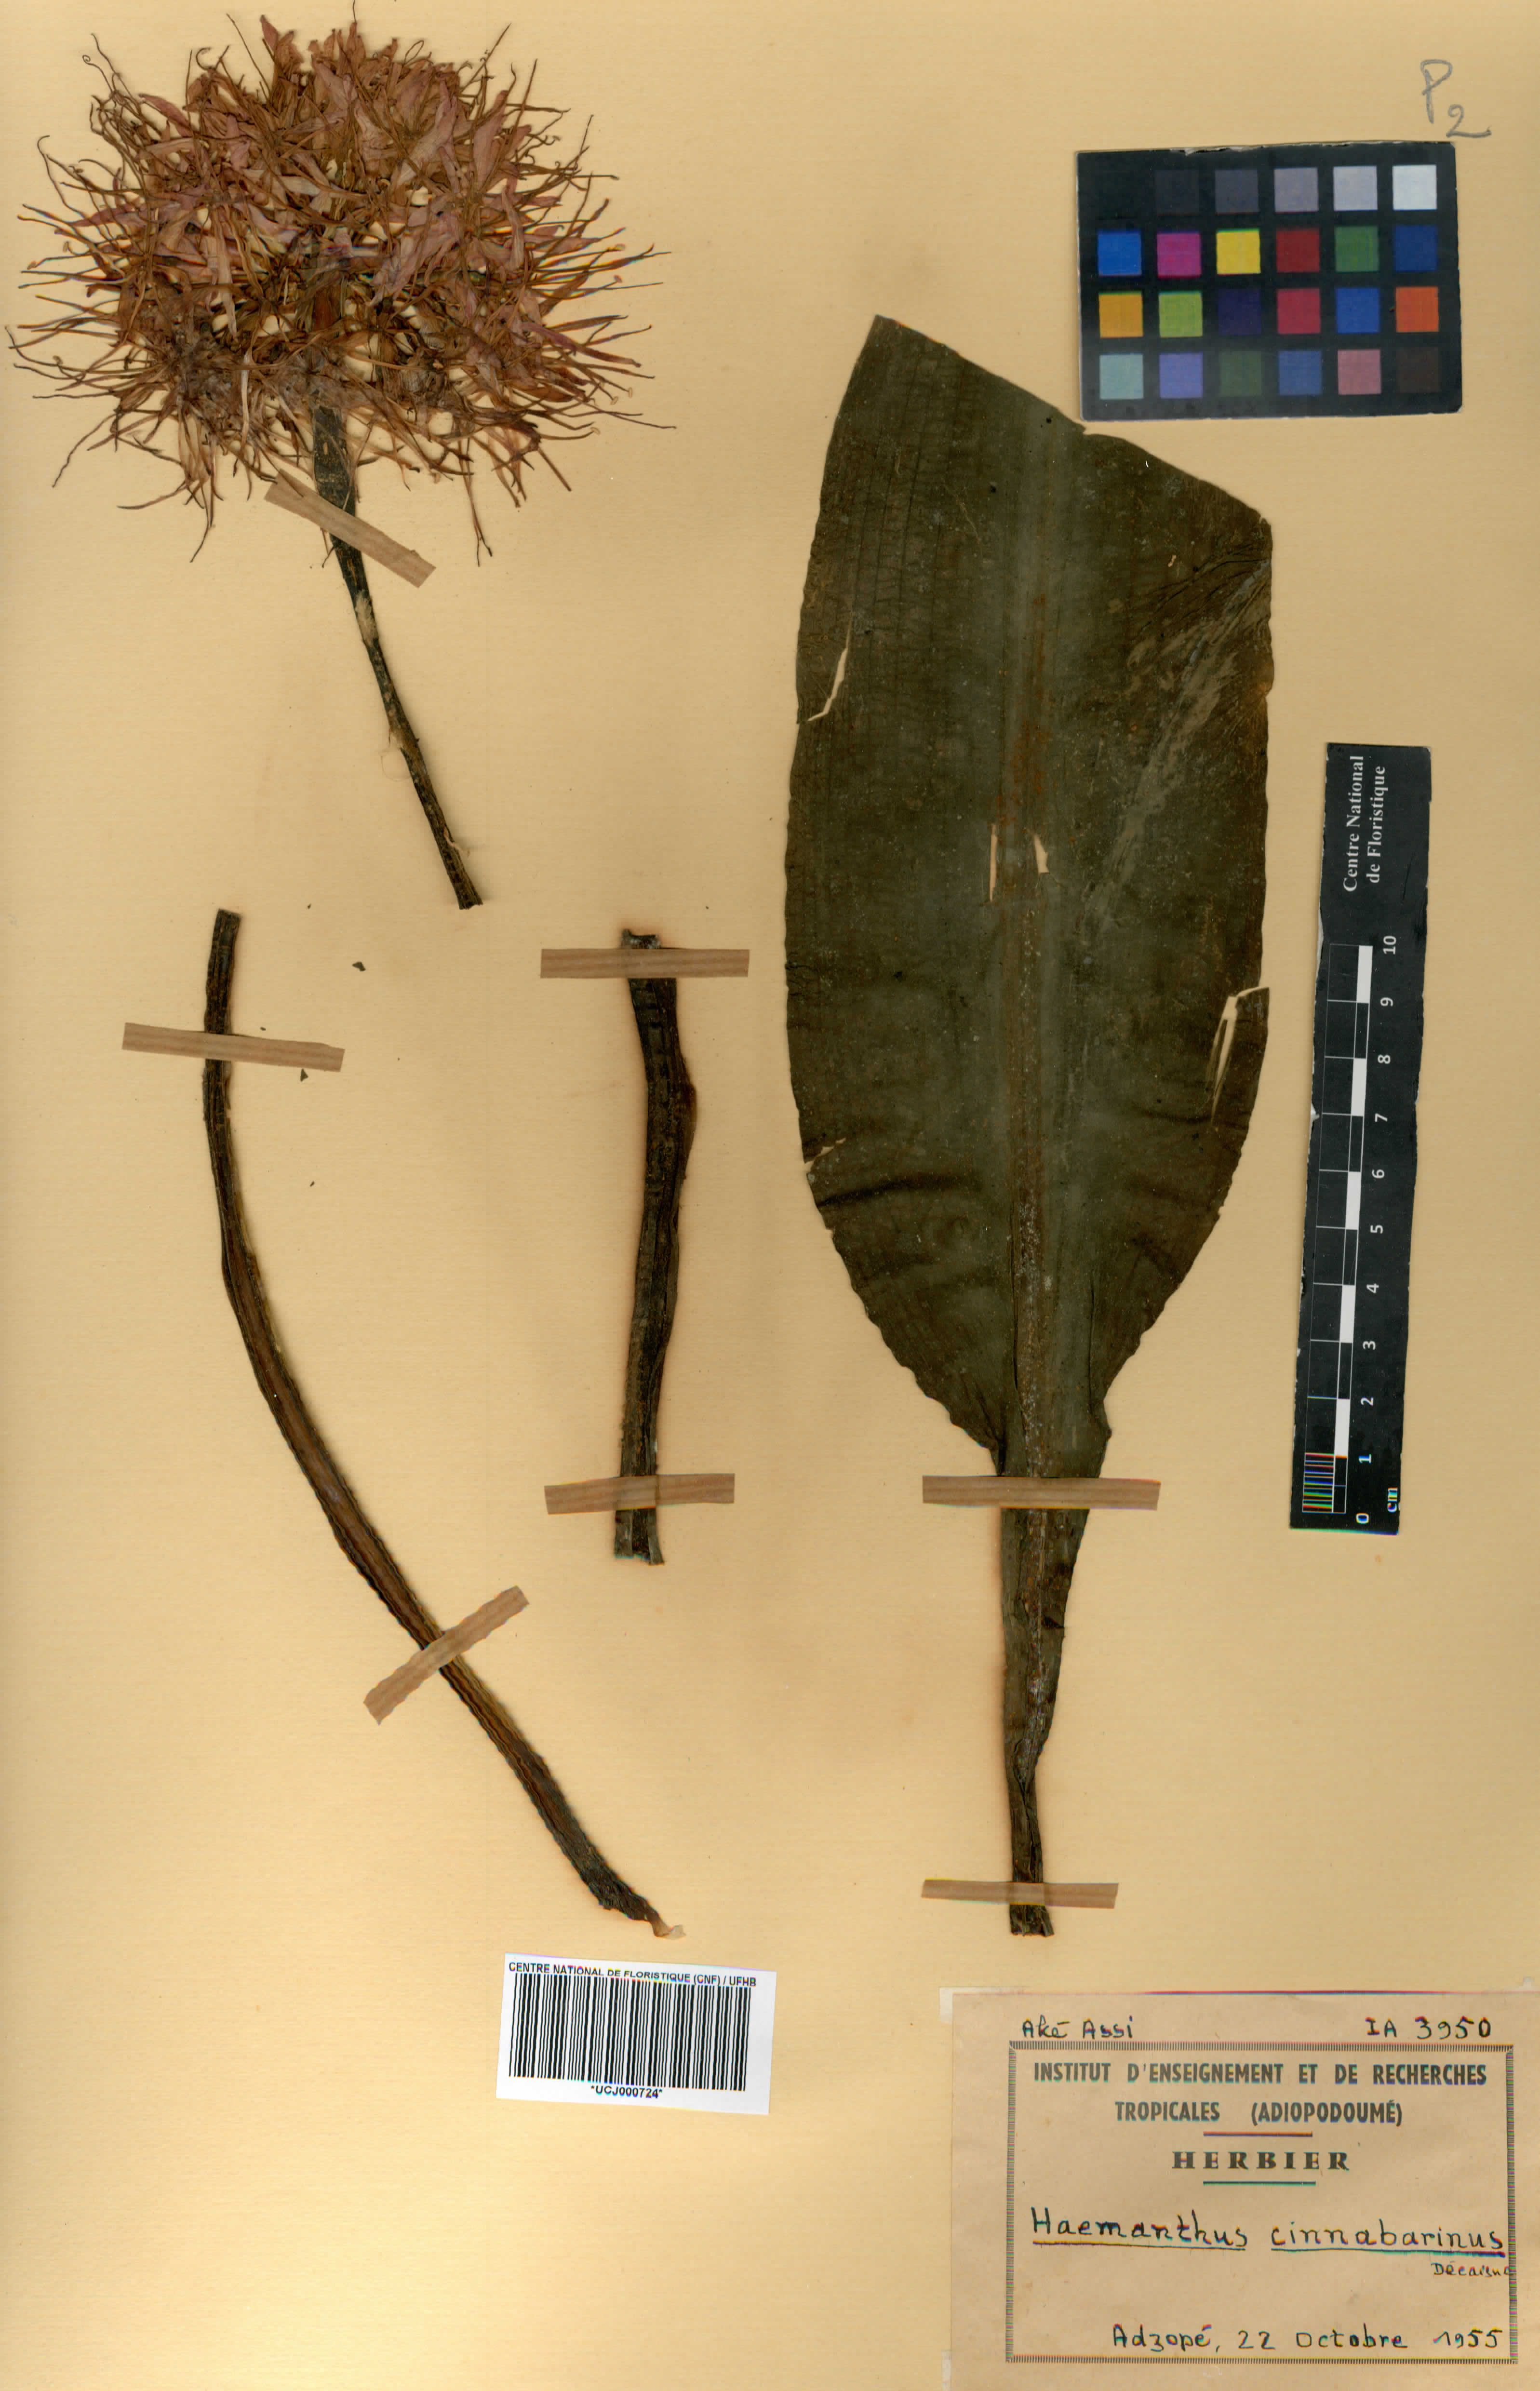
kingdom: Plantae
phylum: Tracheophyta
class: Liliopsida
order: Asparagales
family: Amaryllidaceae
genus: Scadoxus
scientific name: Scadoxus cinnabarinus
